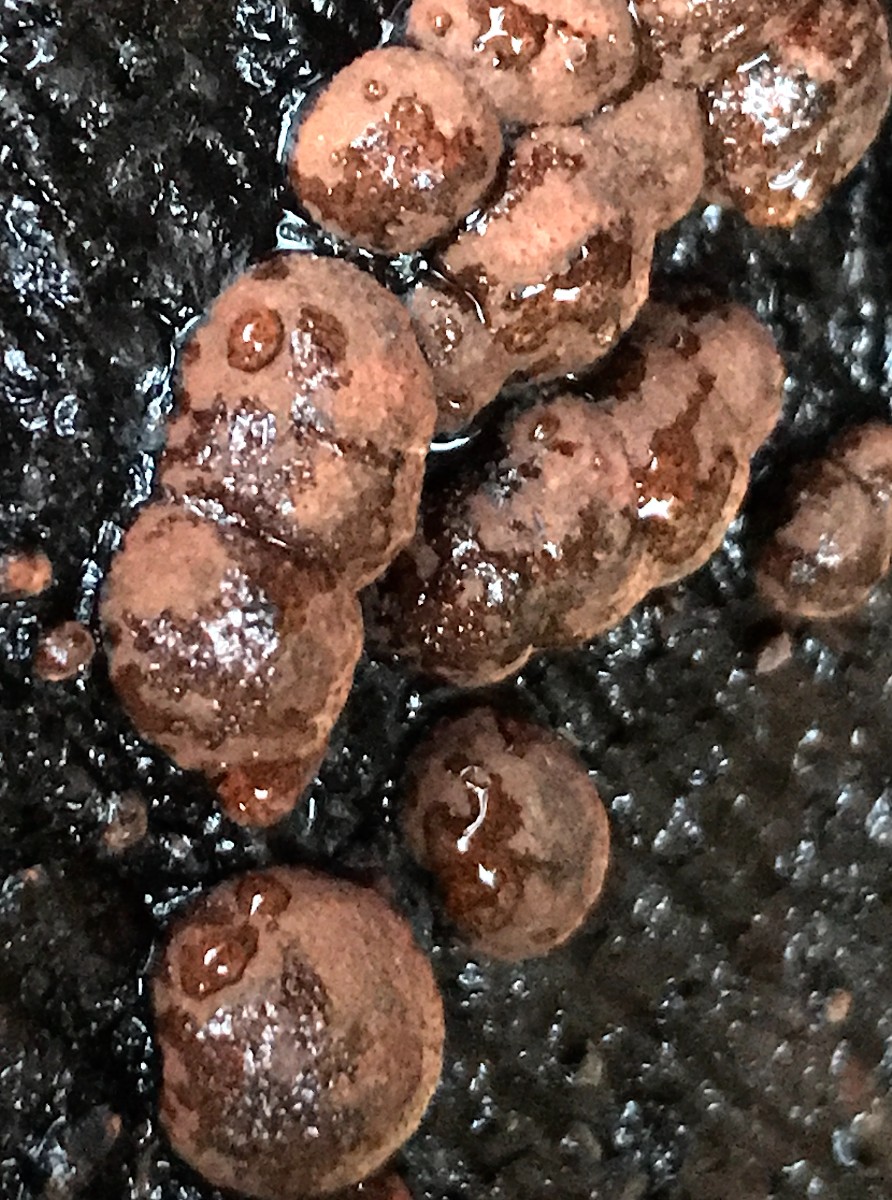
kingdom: Fungi
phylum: Ascomycota
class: Sordariomycetes
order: Xylariales
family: Hypoxylaceae
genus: Hypoxylon
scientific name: Hypoxylon fragiforme
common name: kuljordbær
